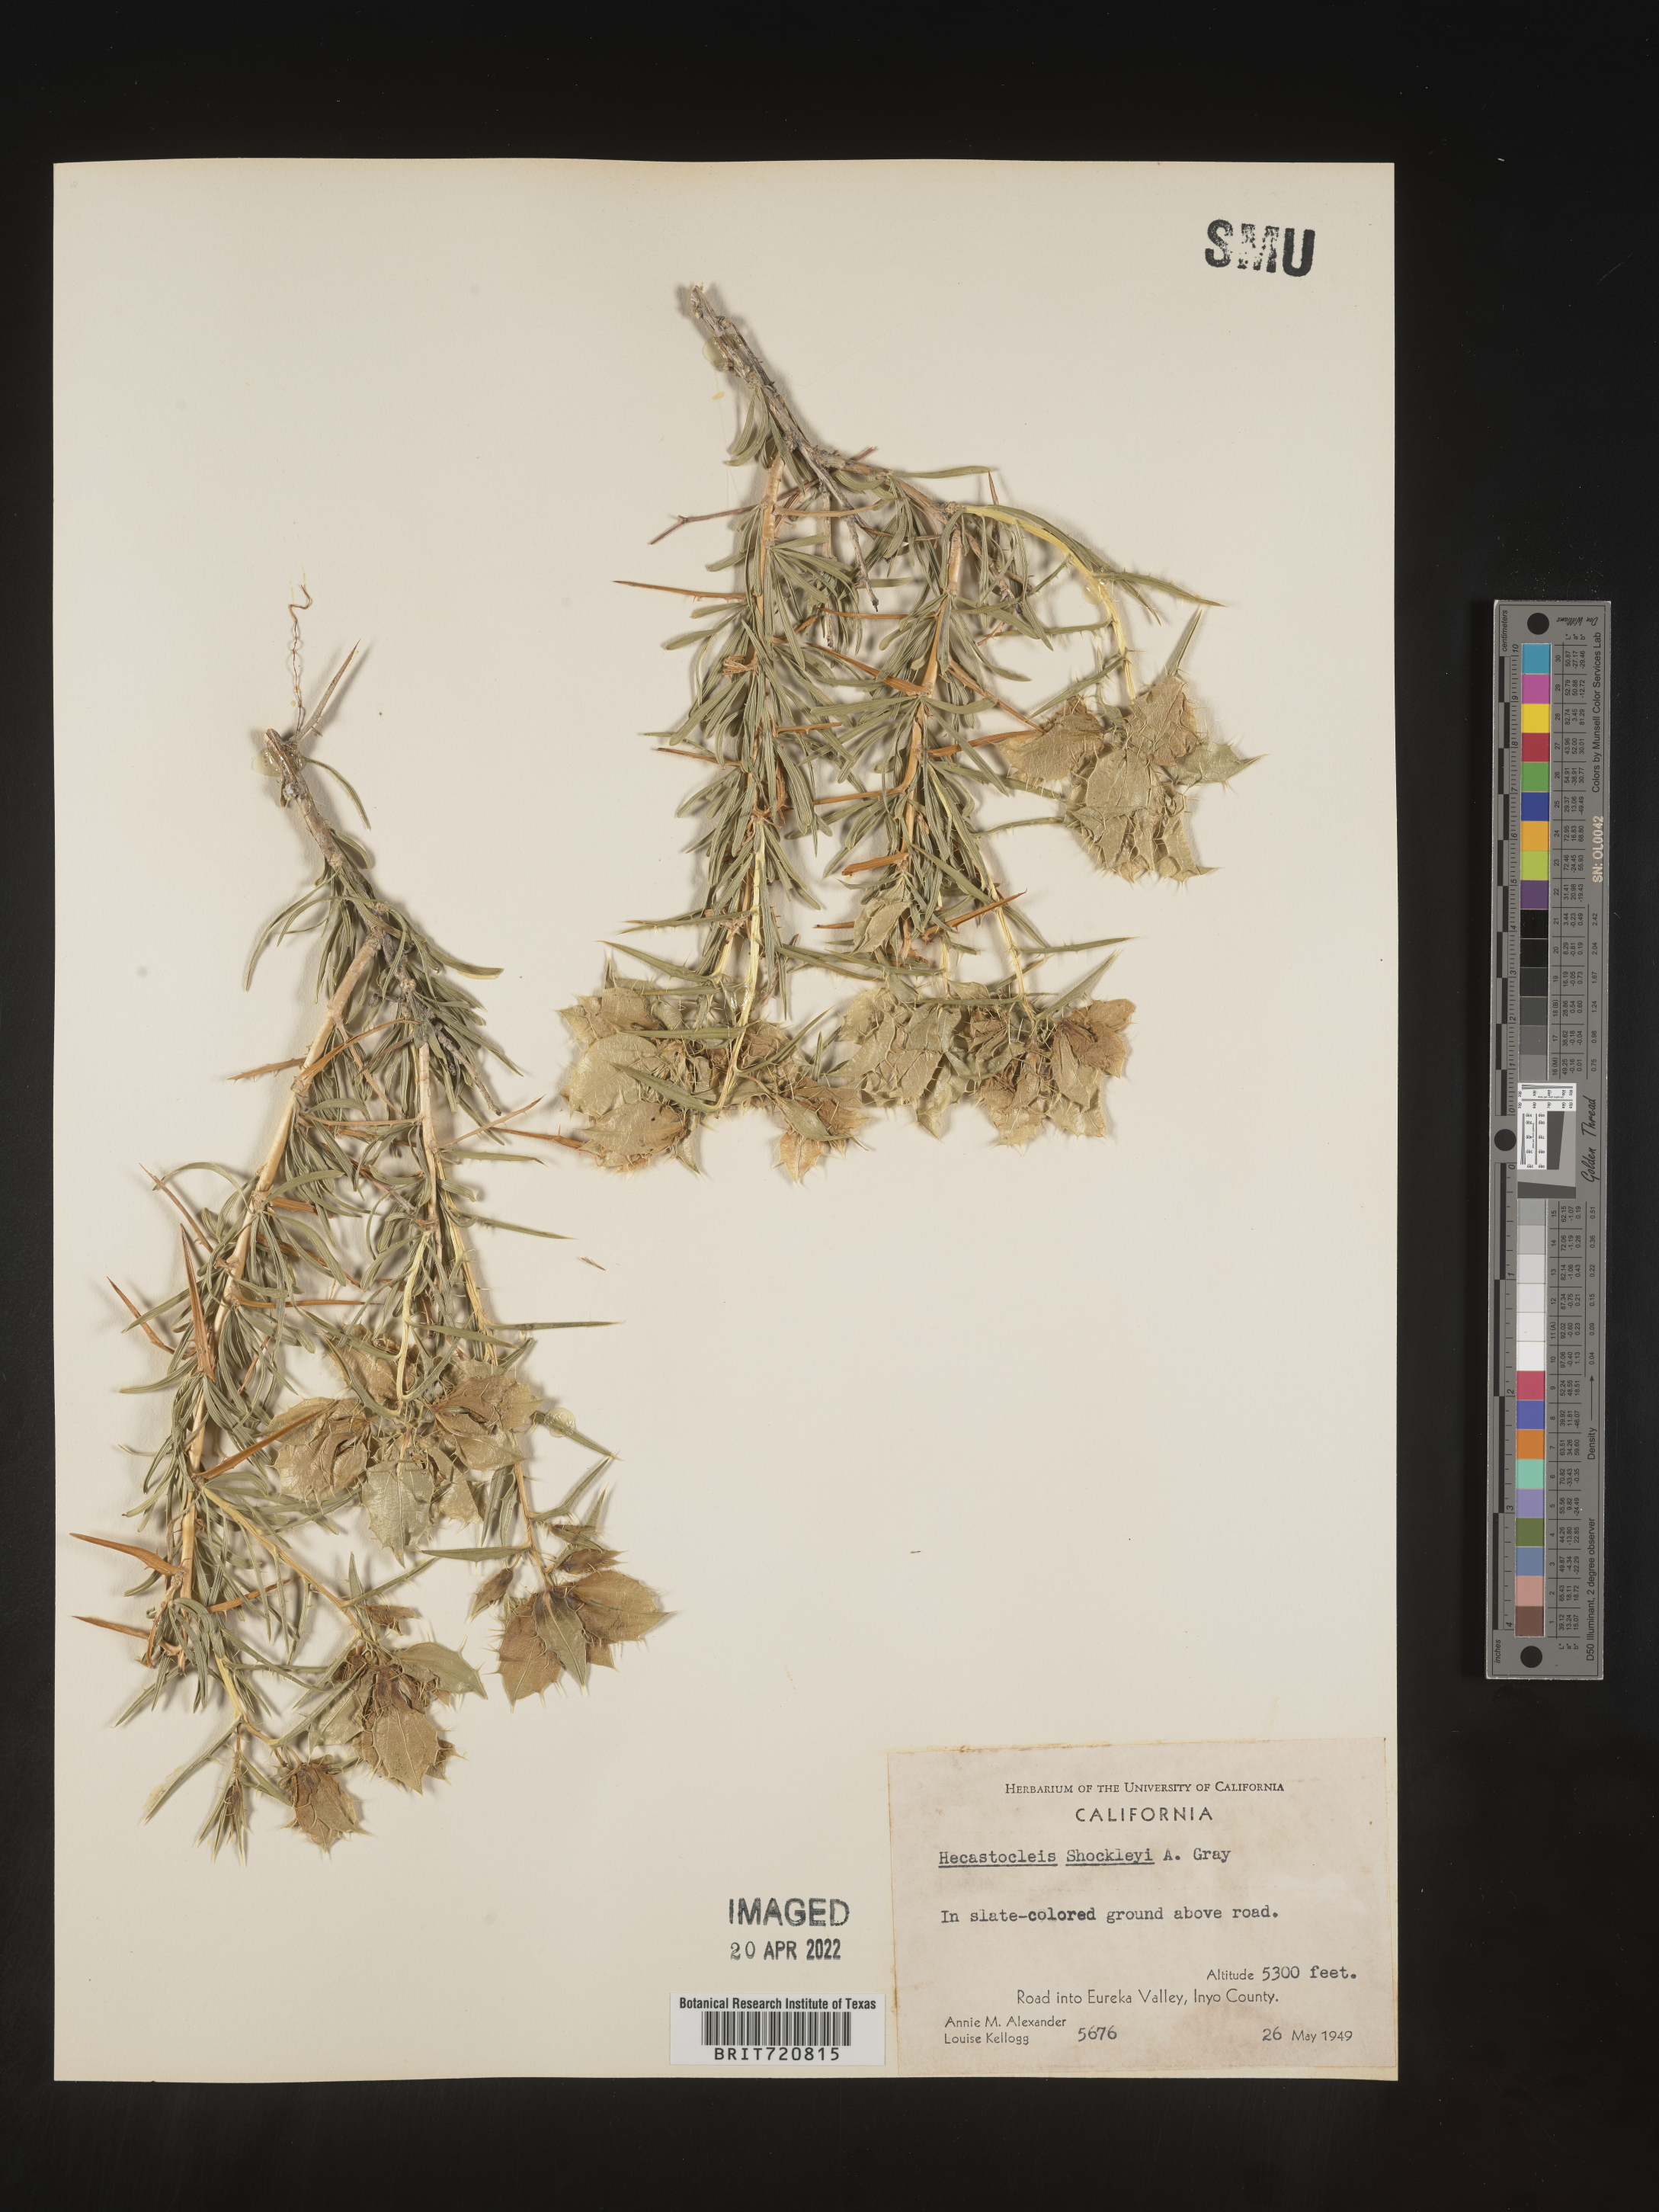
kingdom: Plantae
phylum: Tracheophyta
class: Magnoliopsida
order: Asterales
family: Asteraceae
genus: Hecastocleis
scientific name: Hecastocleis
